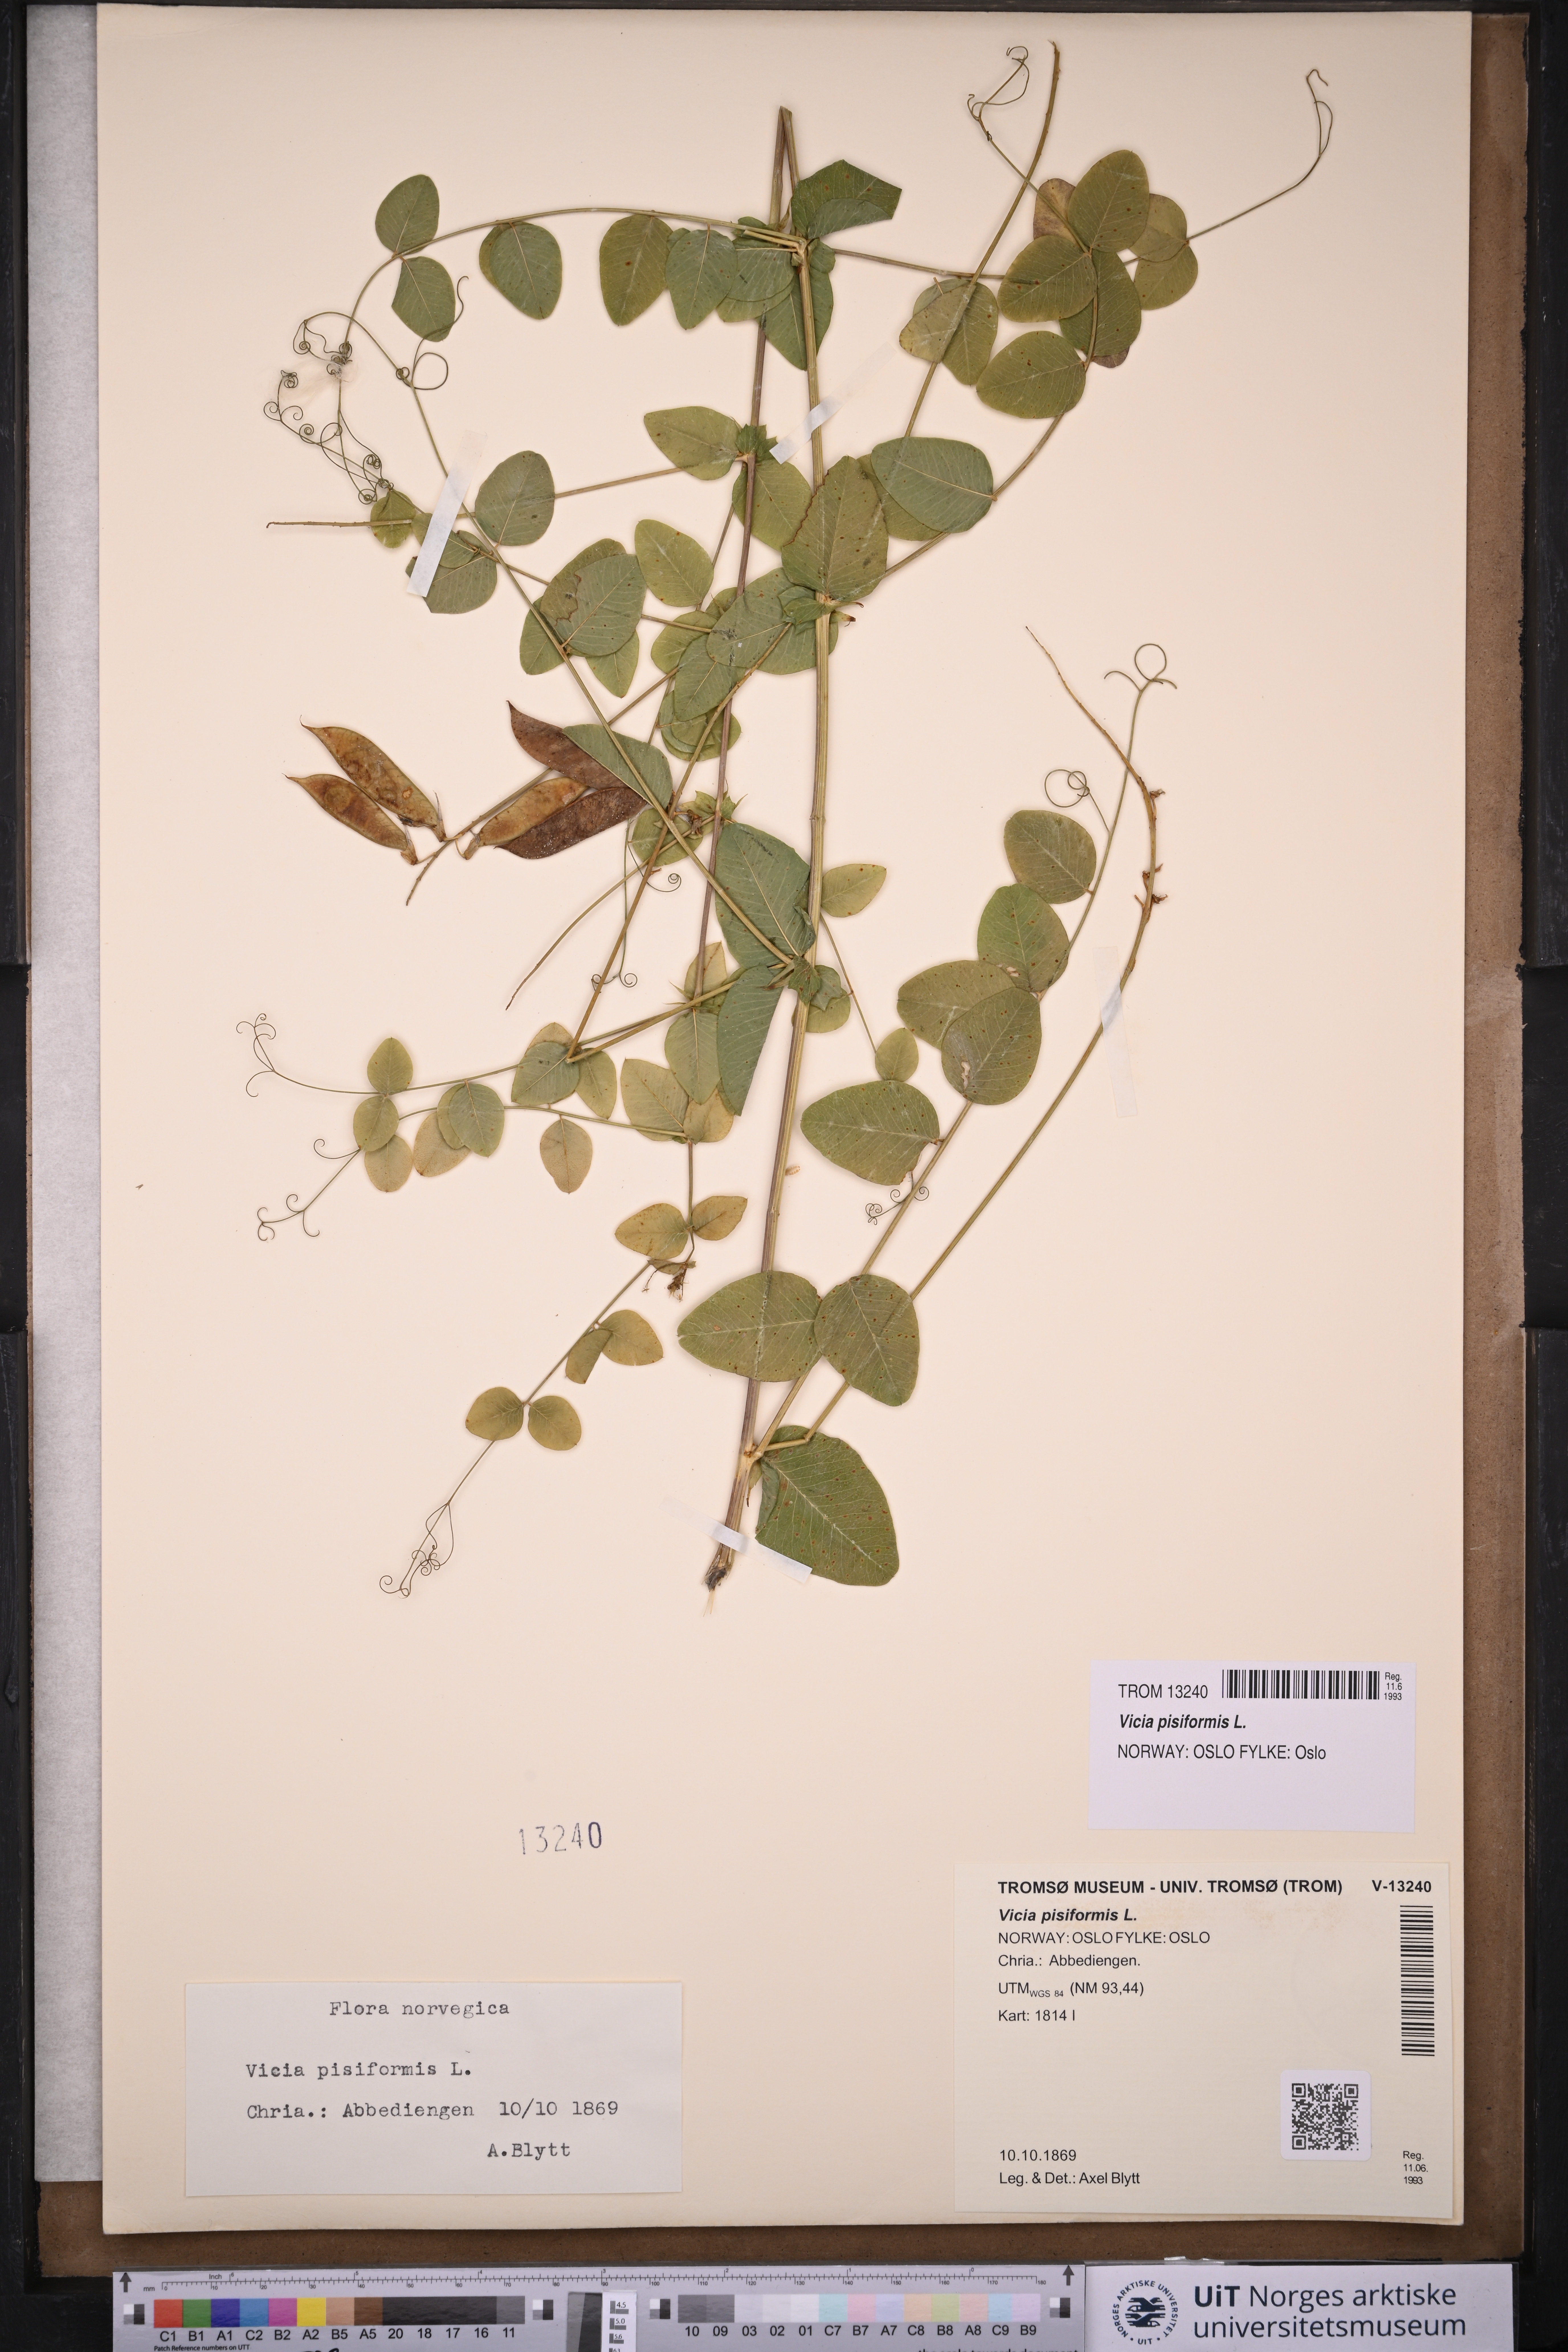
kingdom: Plantae
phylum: Tracheophyta
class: Magnoliopsida
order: Fabales
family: Fabaceae
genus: Vicia
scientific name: Vicia pisiformis
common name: Pale-flower vetch
